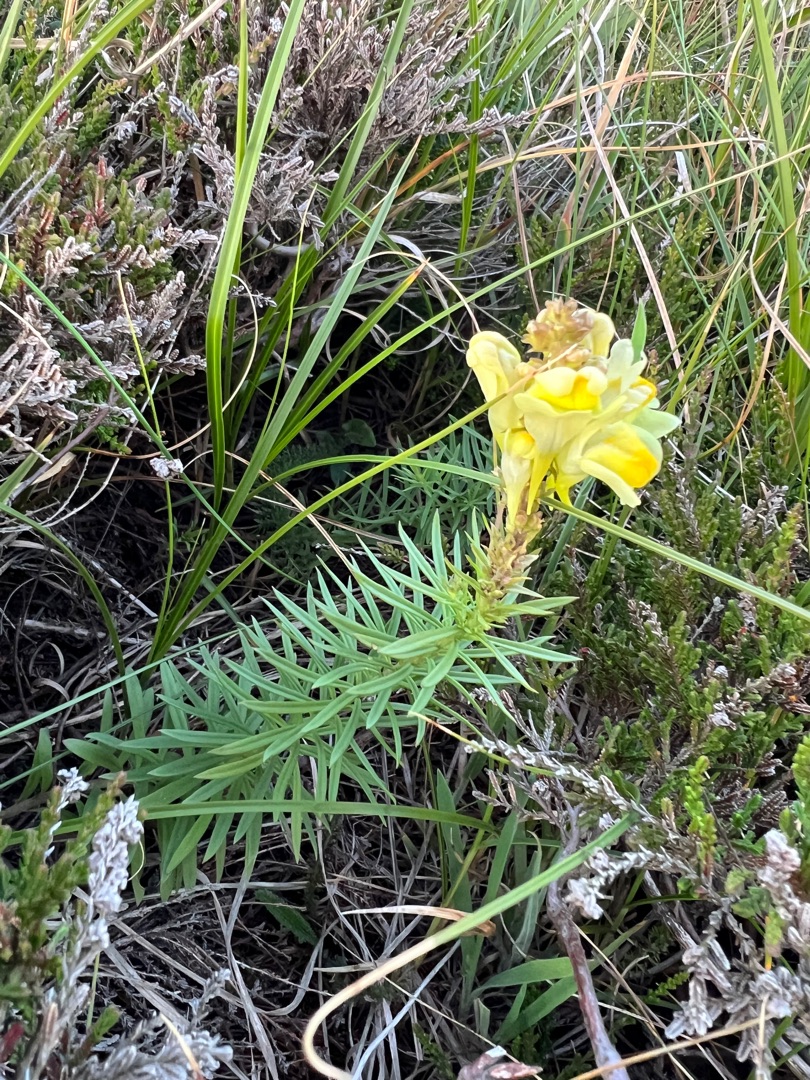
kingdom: Plantae
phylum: Tracheophyta
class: Magnoliopsida
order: Lamiales
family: Plantaginaceae
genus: Linaria
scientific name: Linaria vulgaris
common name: Almindelig torskemund
